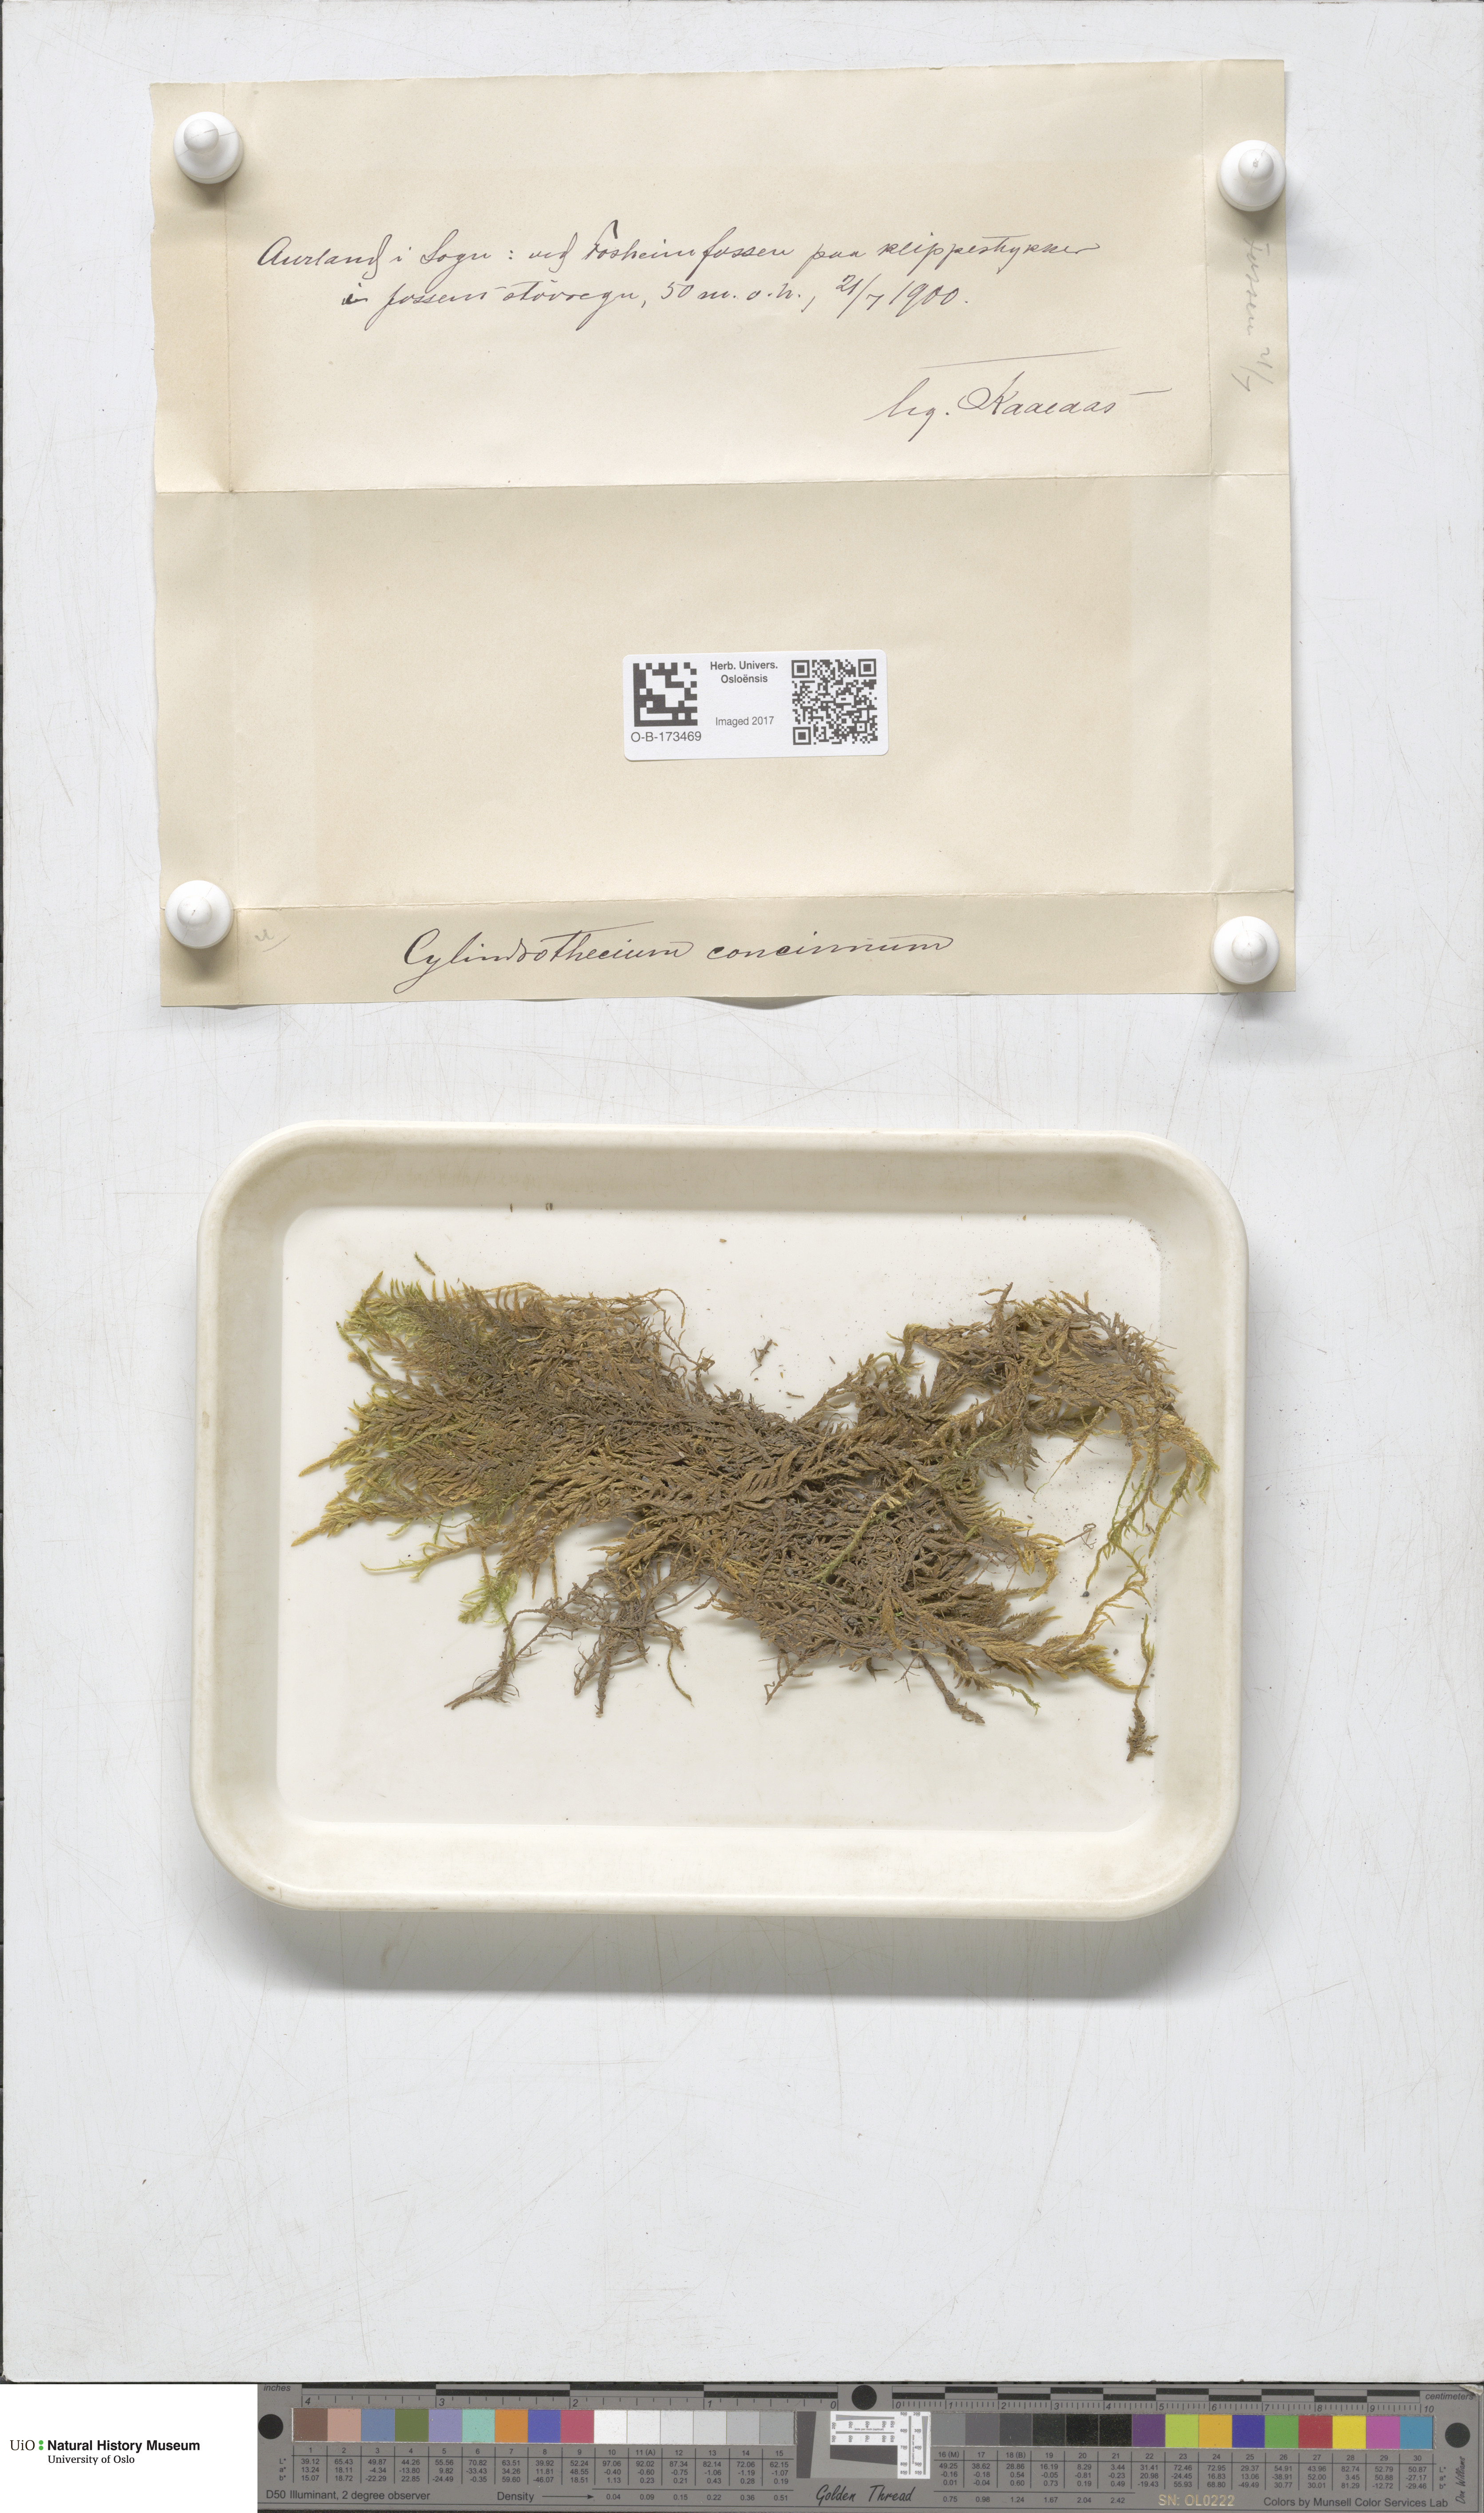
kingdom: Plantae
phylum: Bryophyta
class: Bryopsida
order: Hypnales
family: Entodontaceae
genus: Entodon
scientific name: Entodon concinnus
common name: Montagne's cylinder-moss
